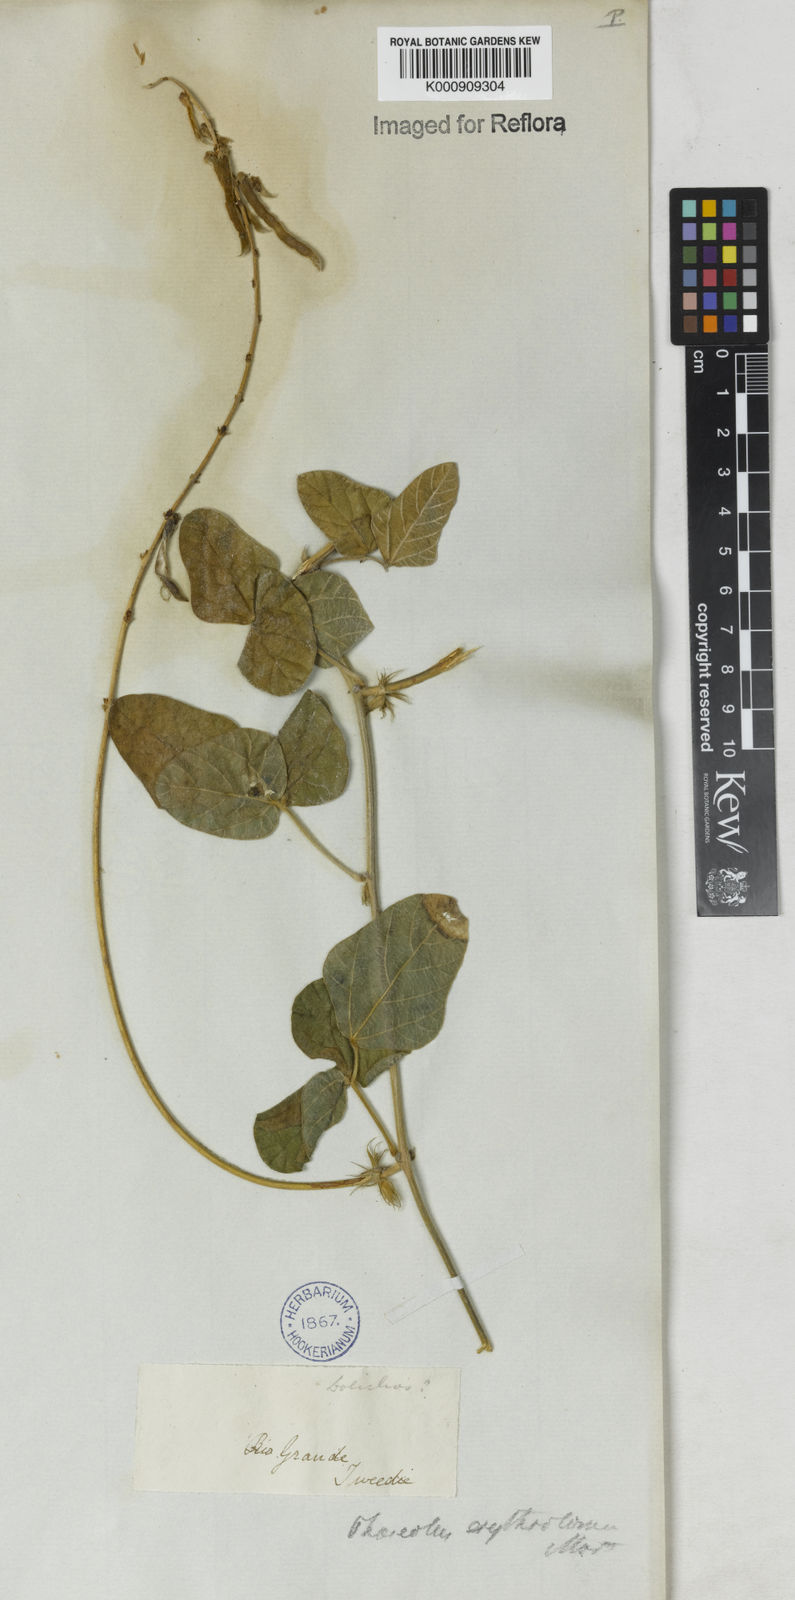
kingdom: Plantae
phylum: Tracheophyta
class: Magnoliopsida
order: Fabales
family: Fabaceae
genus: Macroptilium
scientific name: Macroptilium erythroloma
